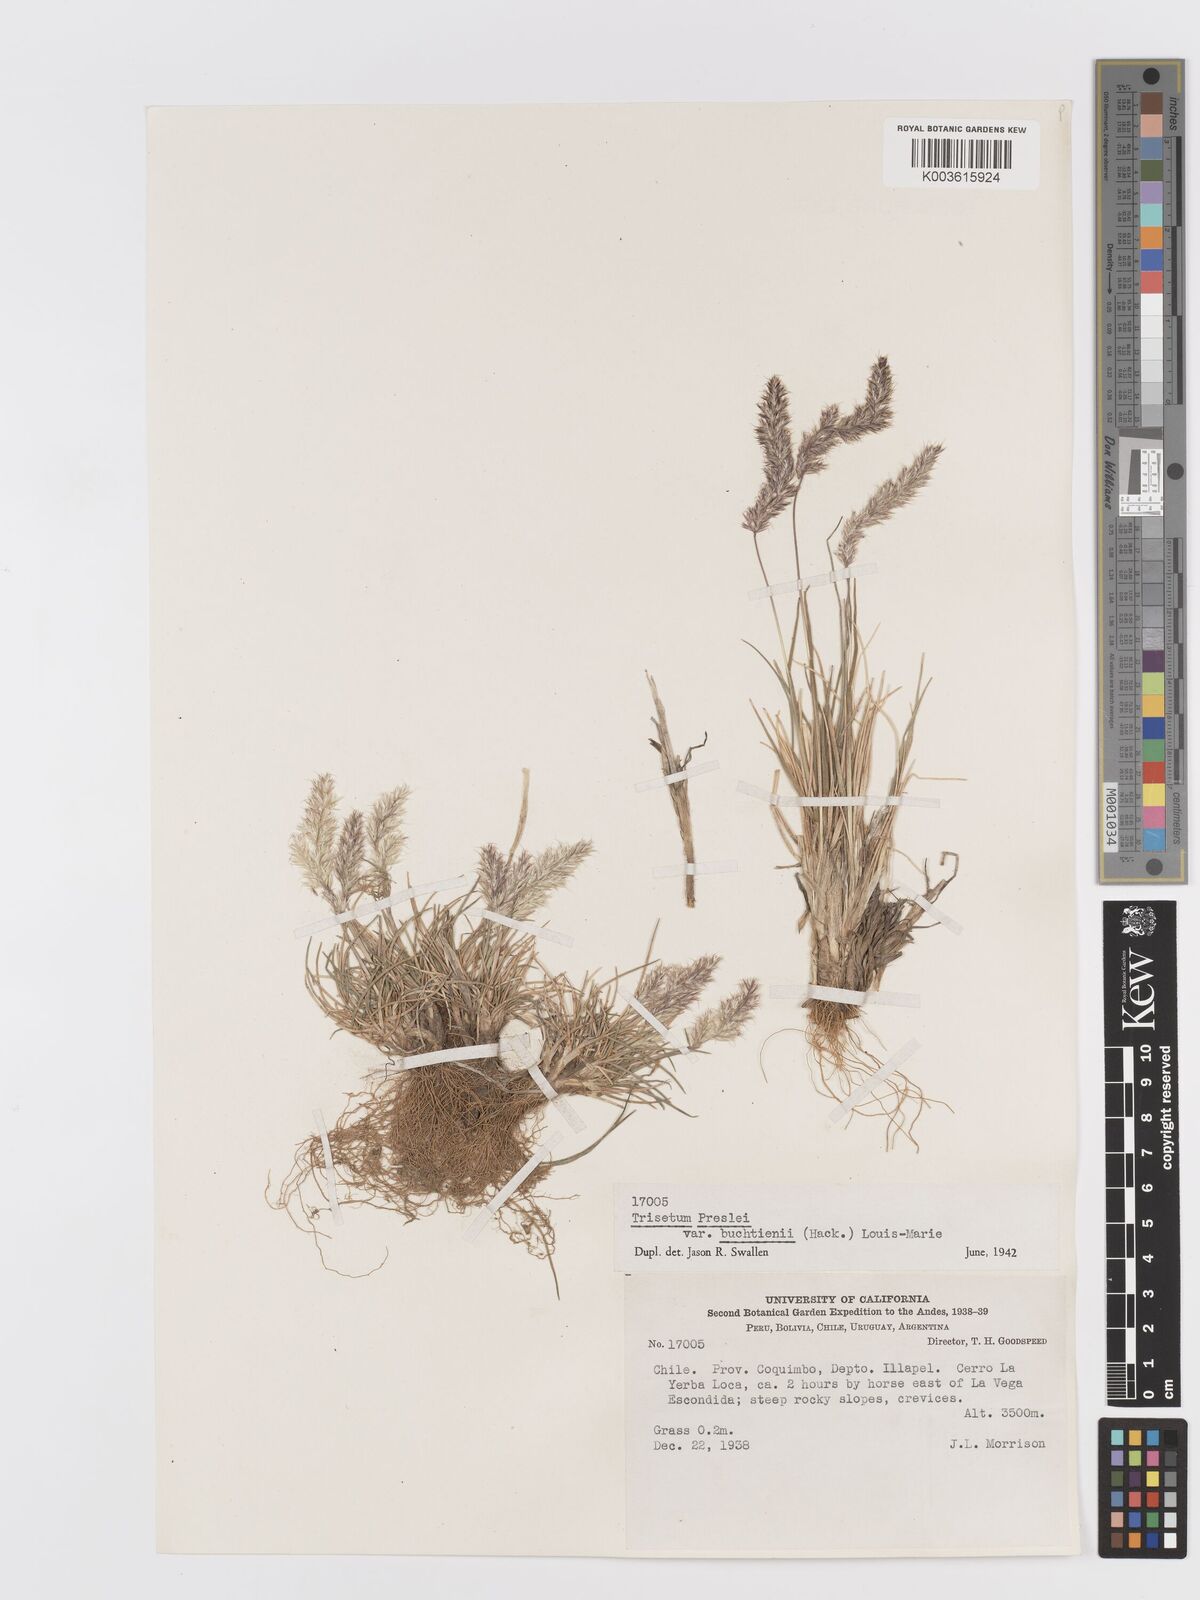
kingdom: Plantae
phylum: Tracheophyta
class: Liliopsida
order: Poales
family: Poaceae
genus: Koeleria
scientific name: Koeleria preslii
